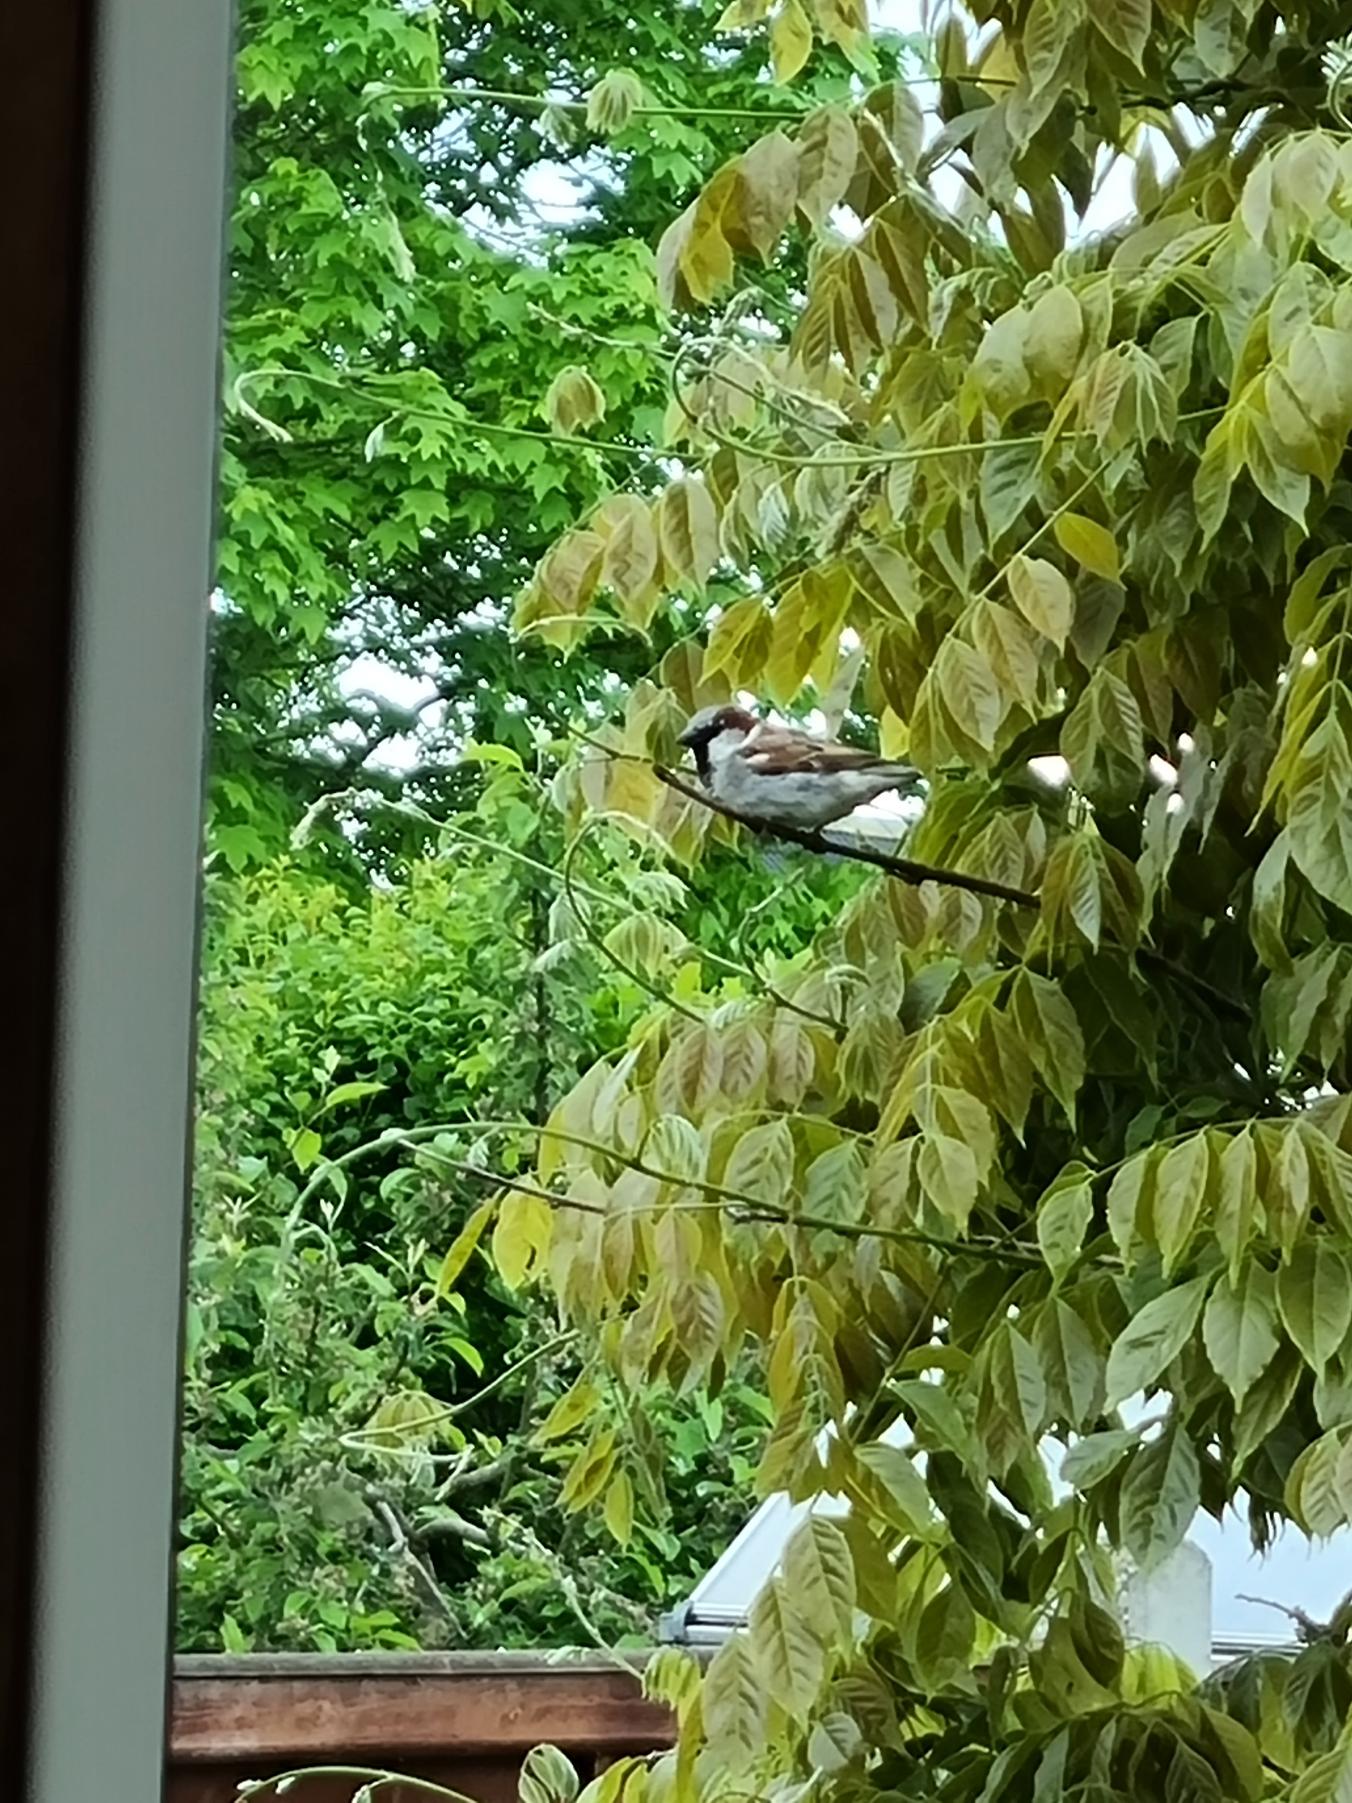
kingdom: Animalia
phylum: Chordata
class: Aves
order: Passeriformes
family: Passeridae
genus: Passer
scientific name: Passer domesticus
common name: Gråspurv
